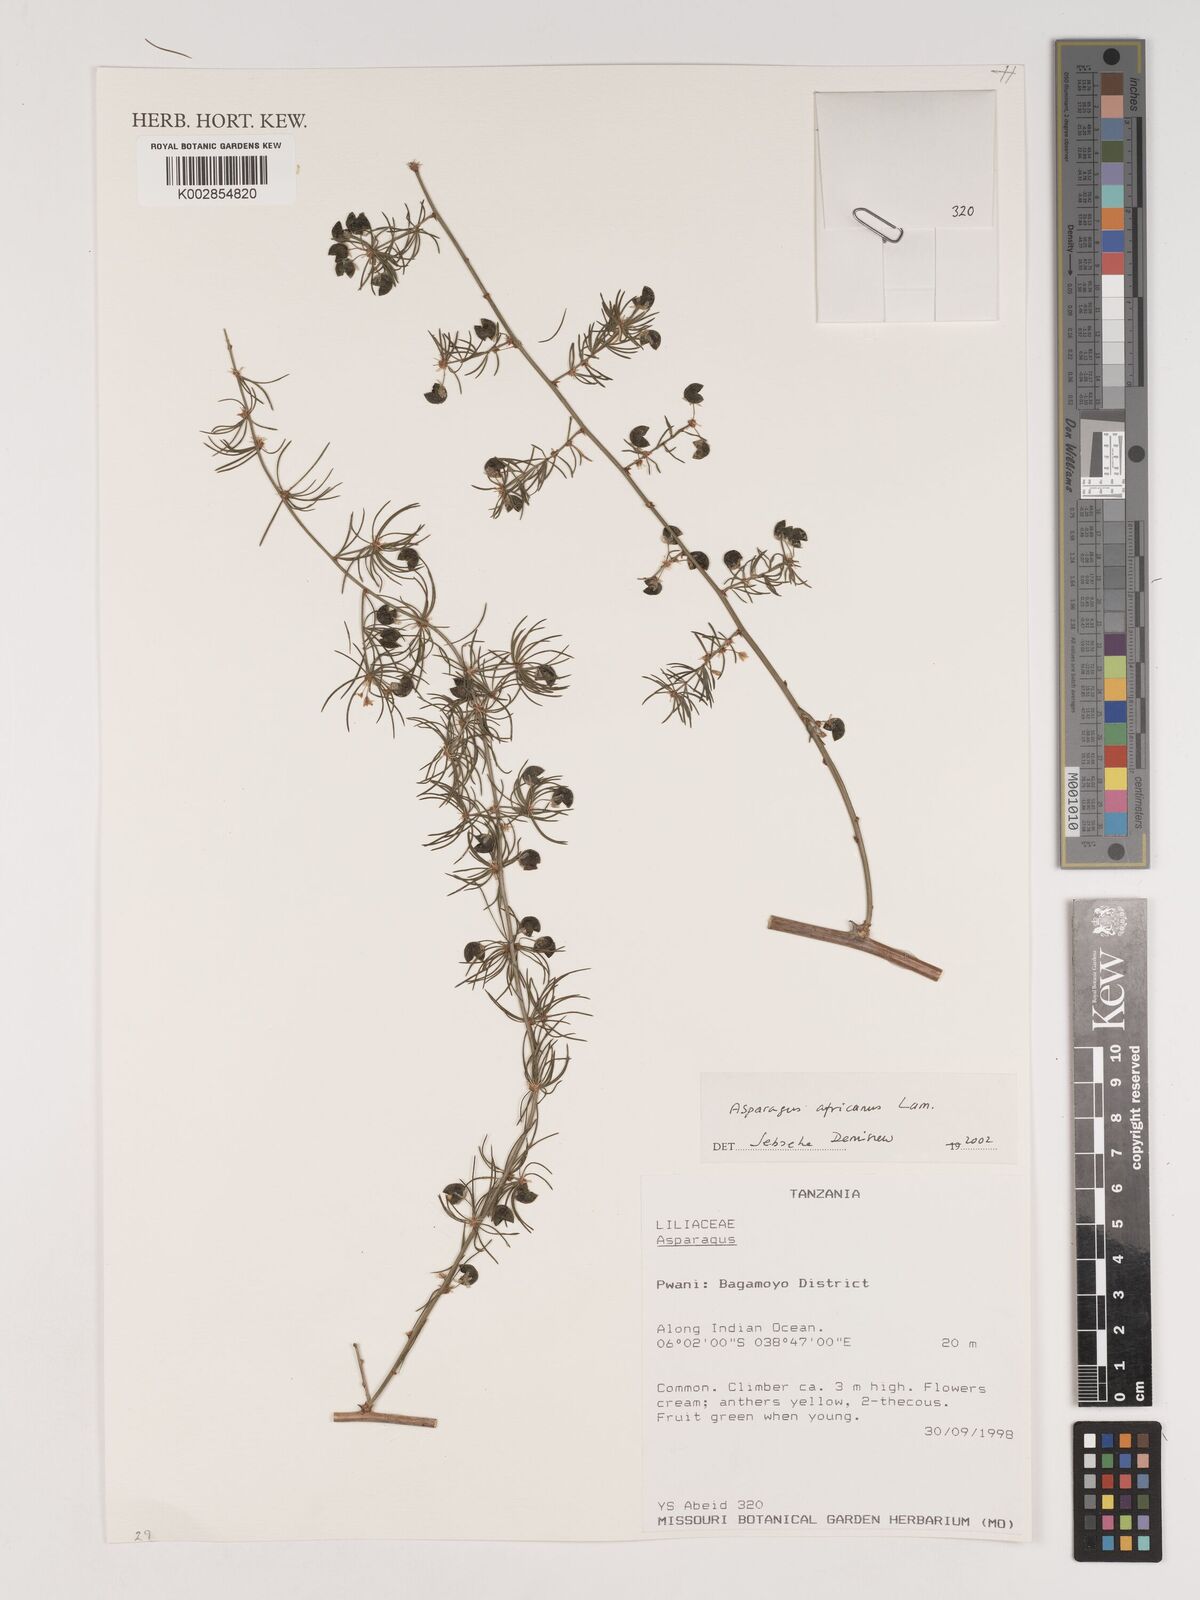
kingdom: Plantae
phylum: Tracheophyta
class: Liliopsida
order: Asparagales
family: Asparagaceae
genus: Asparagus
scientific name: Asparagus africanus
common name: Asparagus-fern
